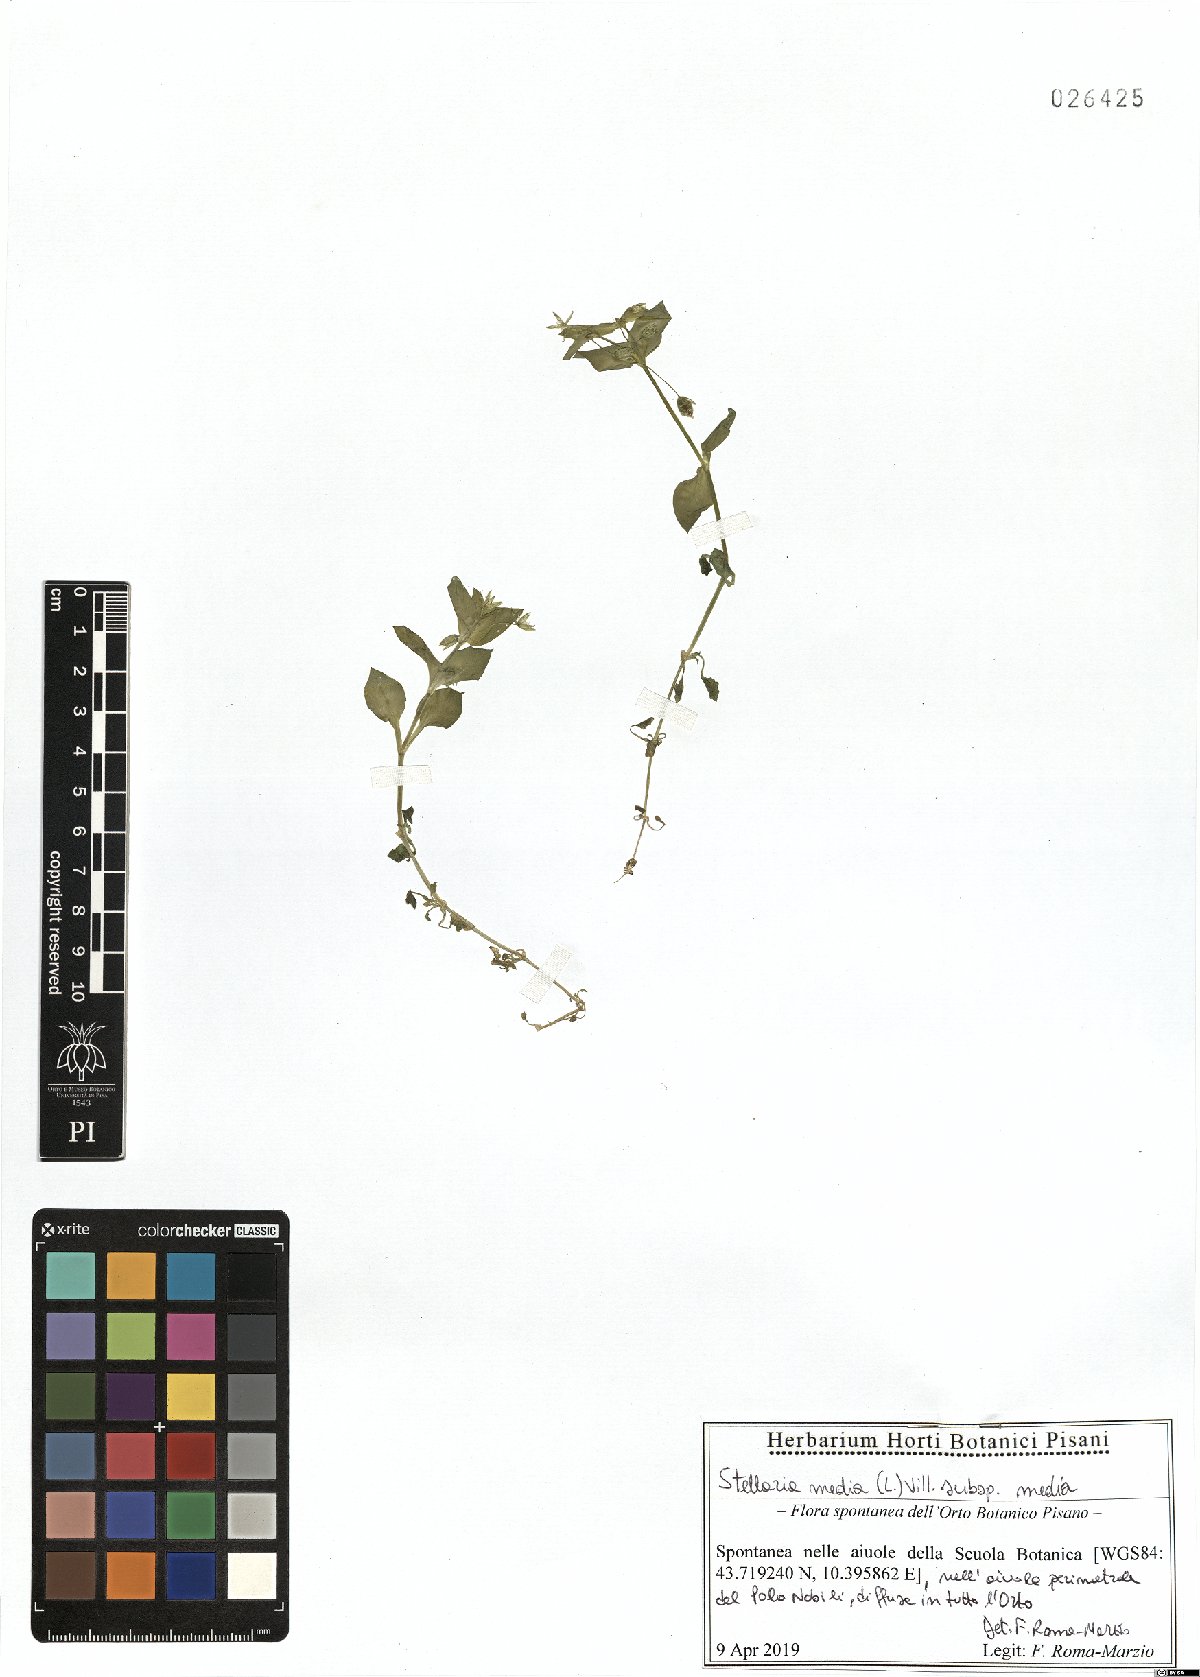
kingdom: Plantae
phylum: Tracheophyta
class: Magnoliopsida
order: Caryophyllales
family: Caryophyllaceae
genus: Stellaria
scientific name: Stellaria media
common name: Common chickweed
